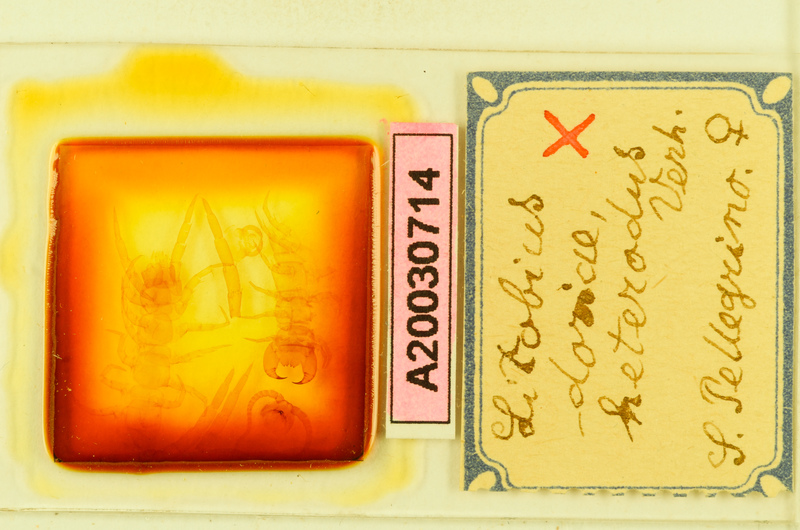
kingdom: Animalia
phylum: Arthropoda
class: Chilopoda
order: Lithobiomorpha
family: Lithobiidae
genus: Lithobius
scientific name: Lithobius pilicornis
